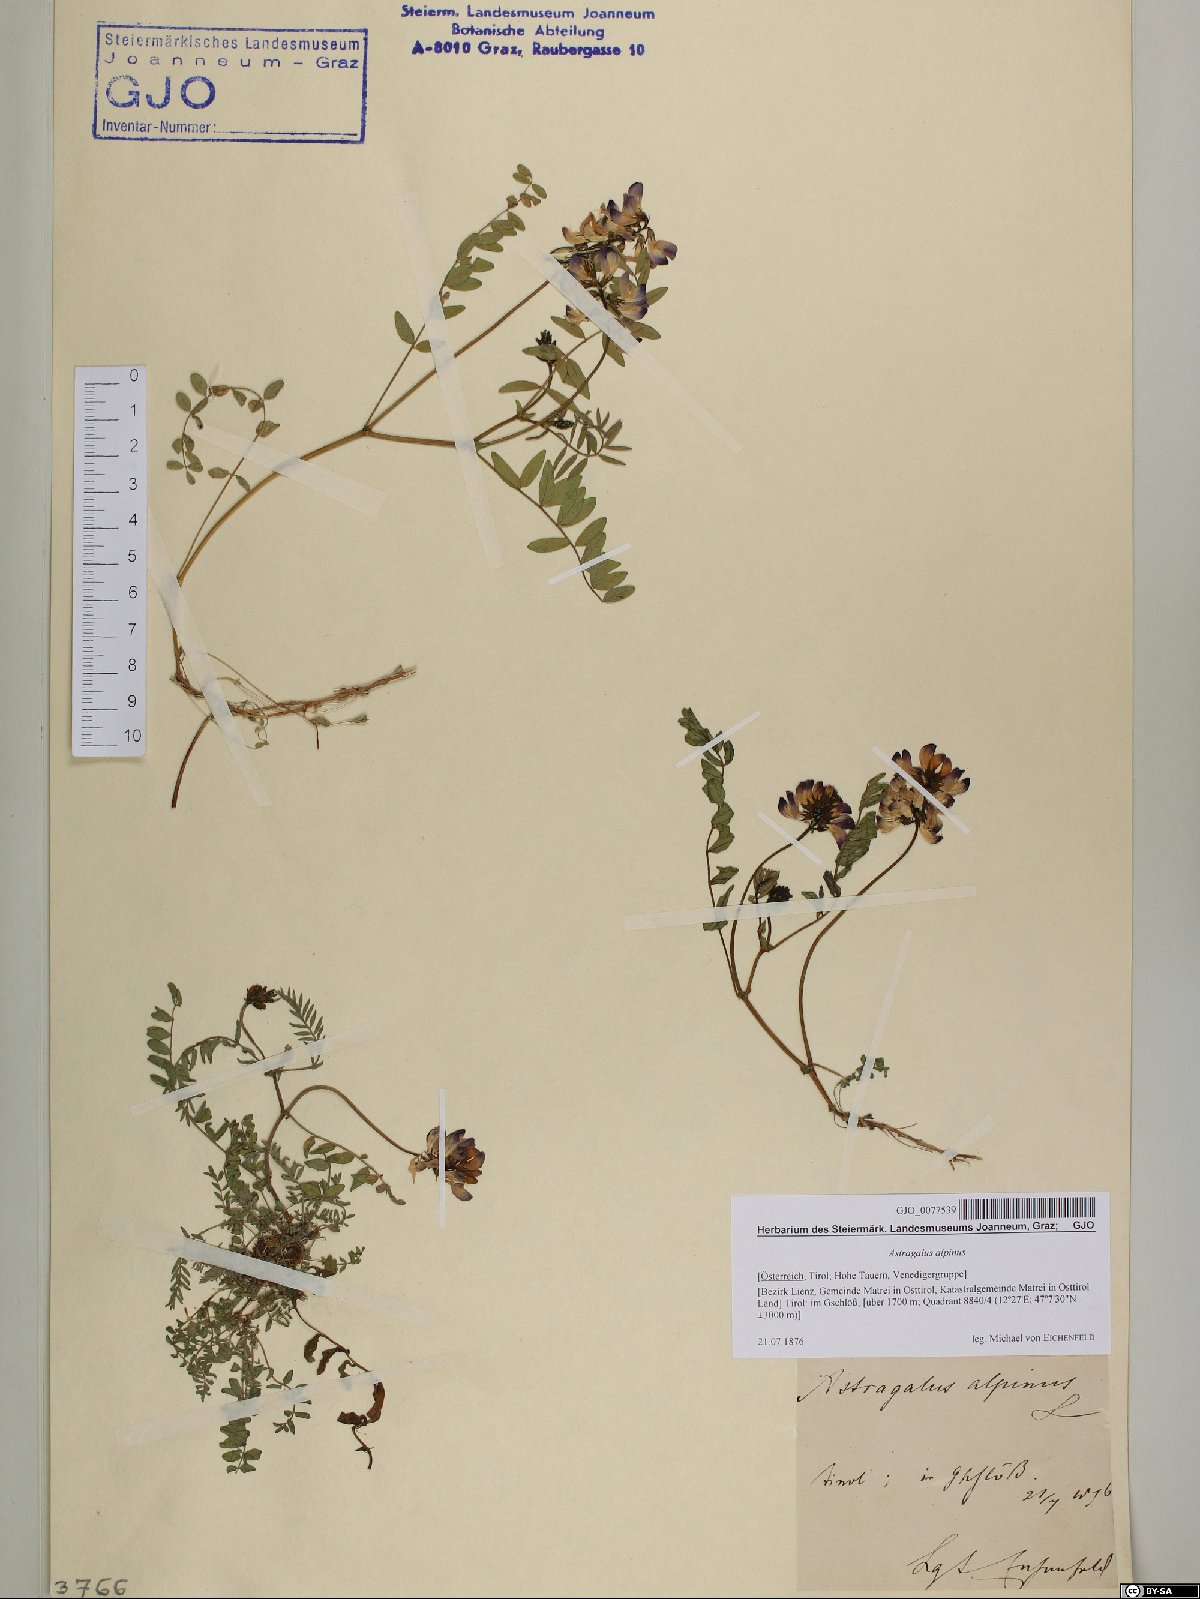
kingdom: Plantae
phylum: Tracheophyta
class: Magnoliopsida
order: Fabales
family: Fabaceae
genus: Astragalus
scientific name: Astragalus alpinus
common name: Alpine milk-vetch
